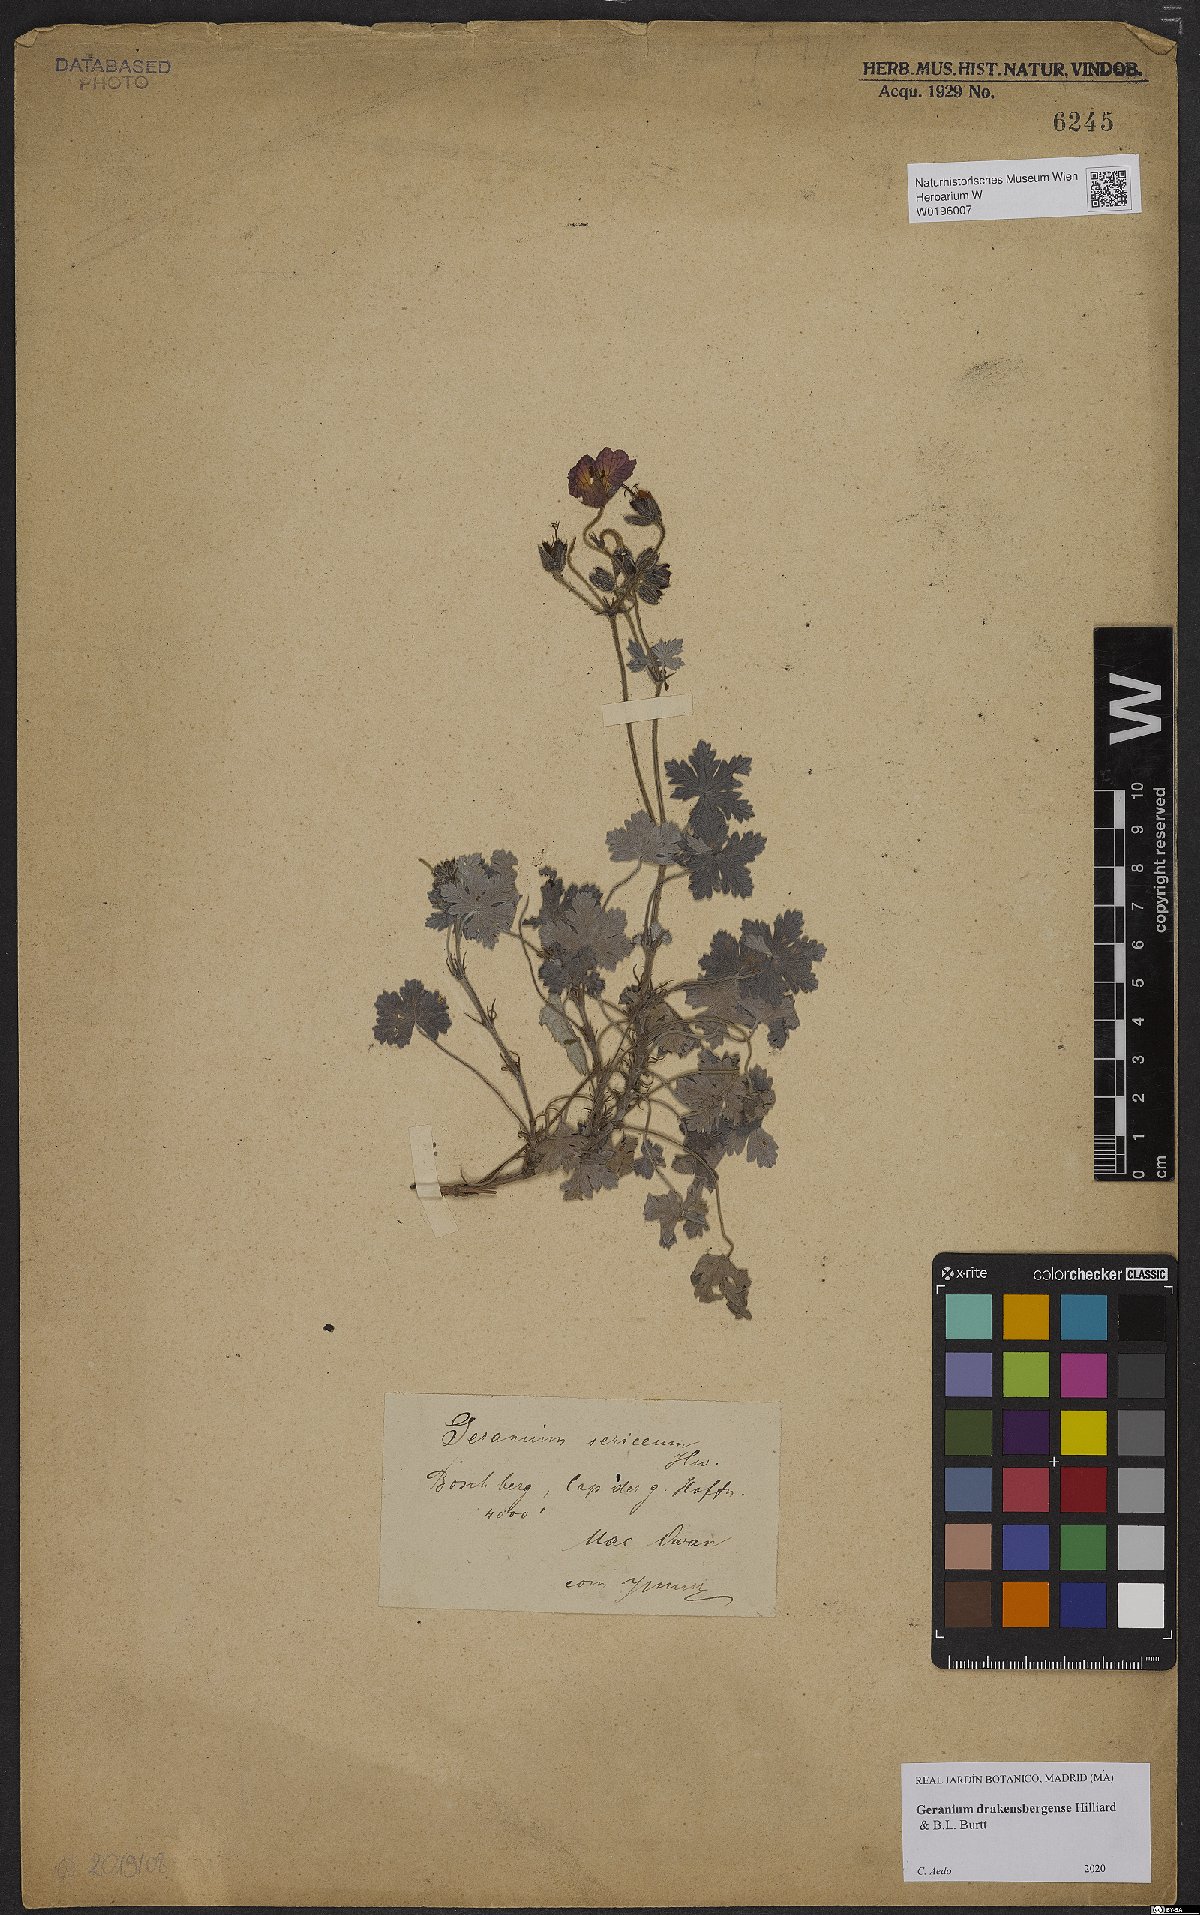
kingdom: Plantae
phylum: Tracheophyta
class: Magnoliopsida
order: Geraniales
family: Geraniaceae
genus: Geranium
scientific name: Geranium drakensbergense
